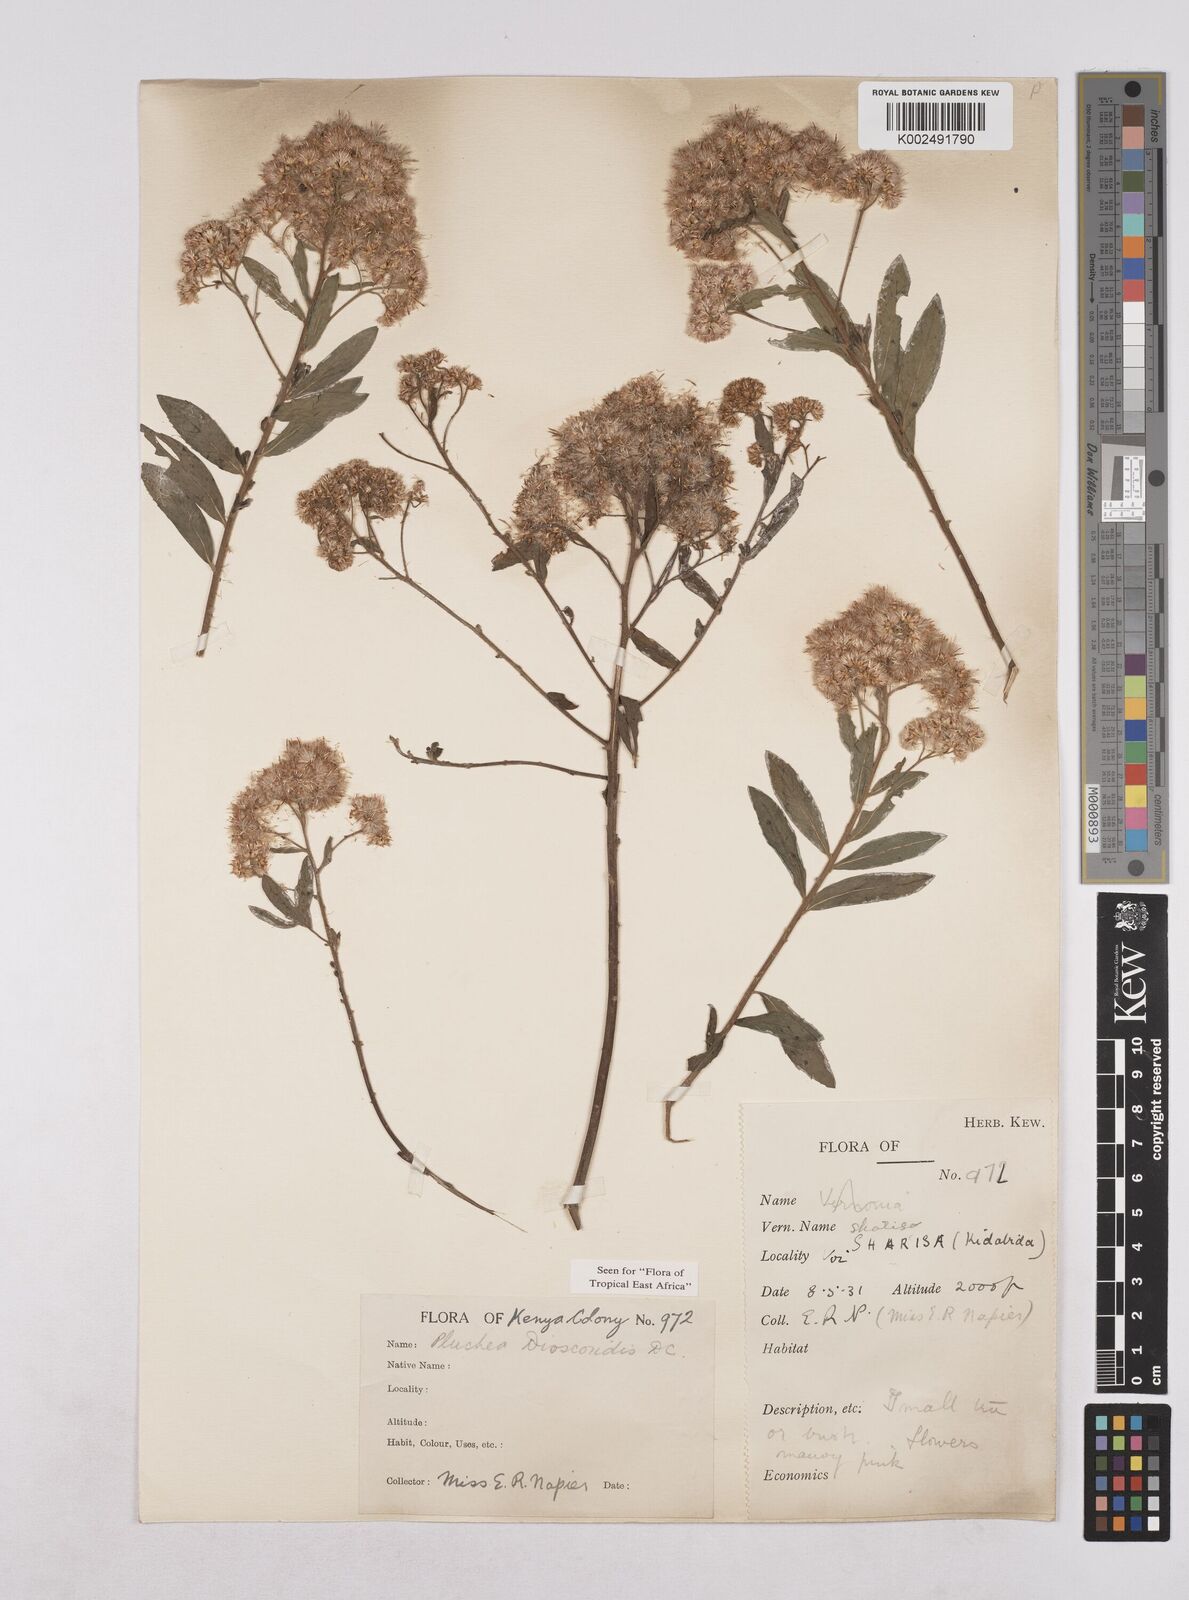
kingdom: Plantae
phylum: Tracheophyta
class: Magnoliopsida
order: Asterales
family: Asteraceae
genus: Pluchea
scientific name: Pluchea dioscoridis
